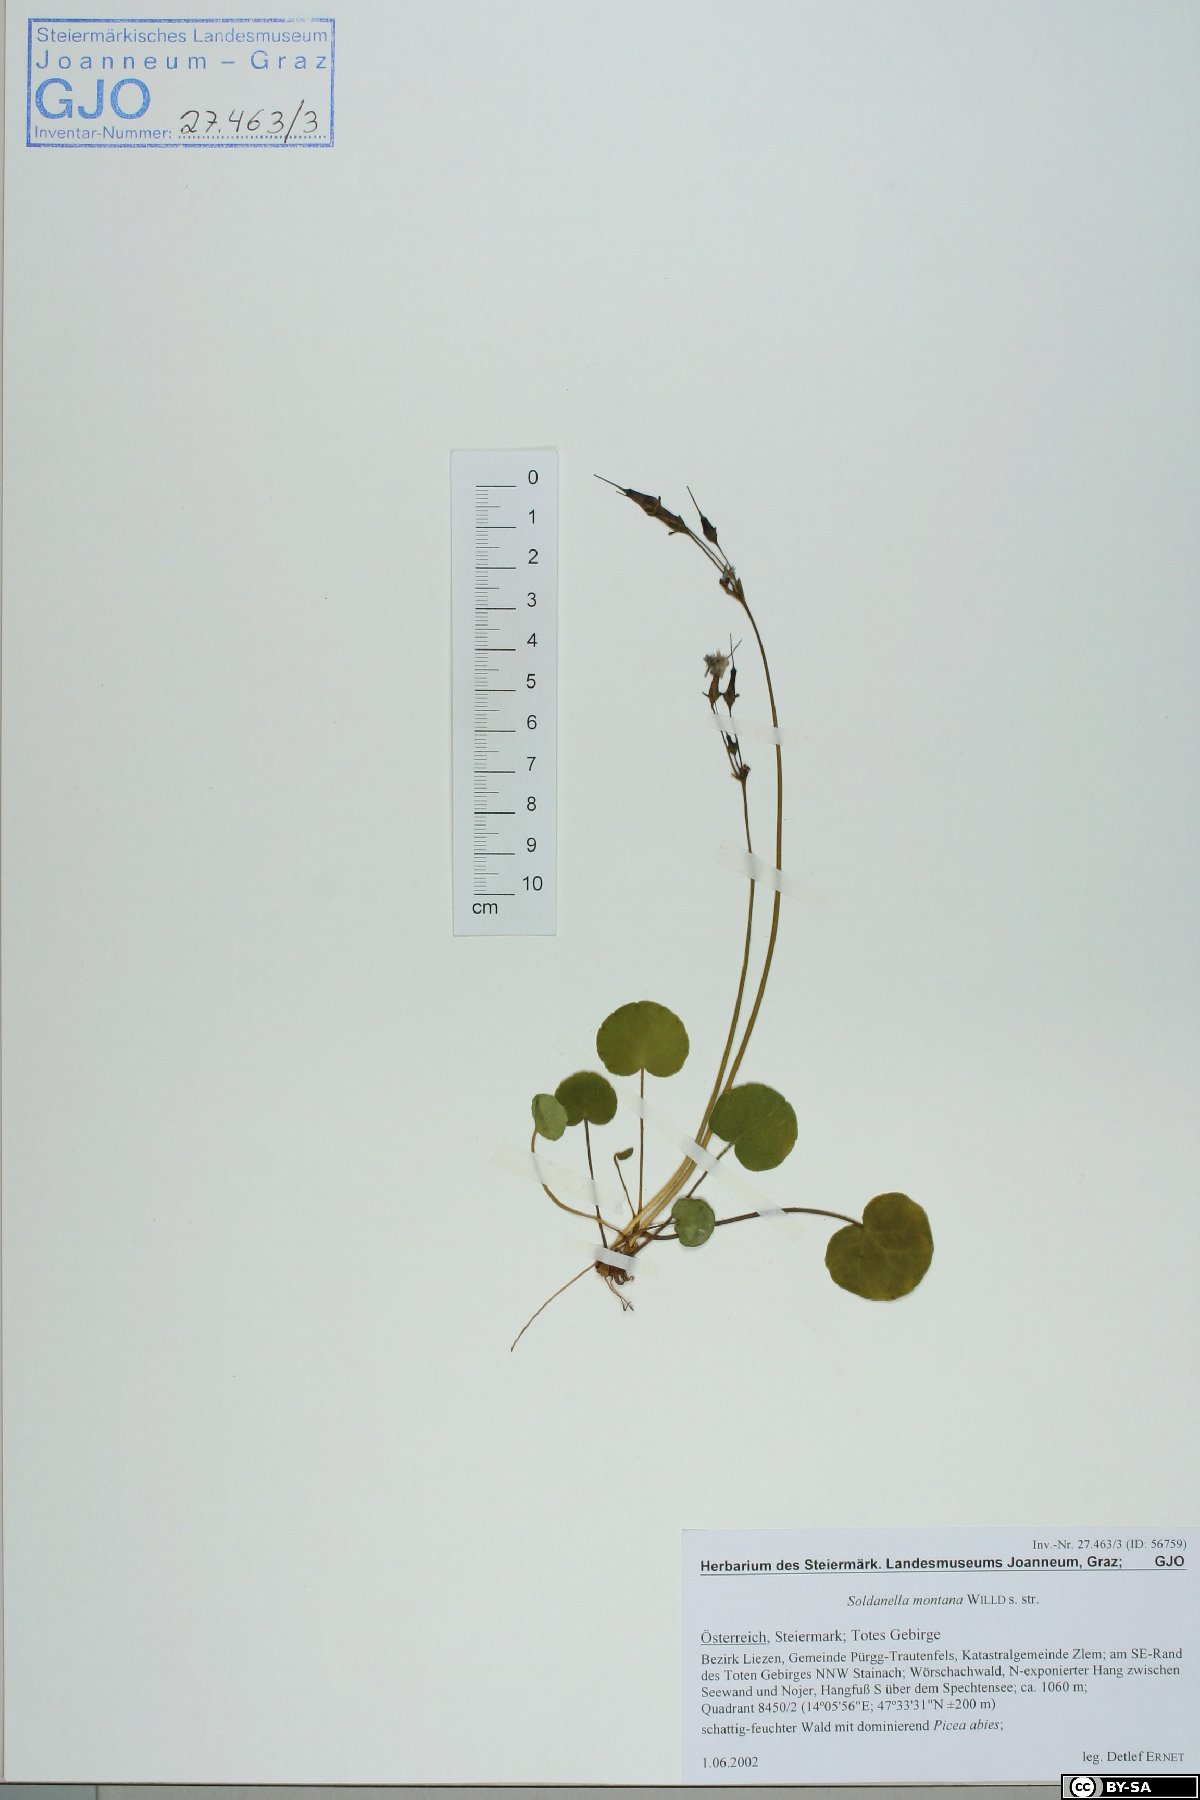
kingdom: Plantae
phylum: Tracheophyta
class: Magnoliopsida
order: Ericales
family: Primulaceae
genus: Soldanella
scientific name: Soldanella montana
